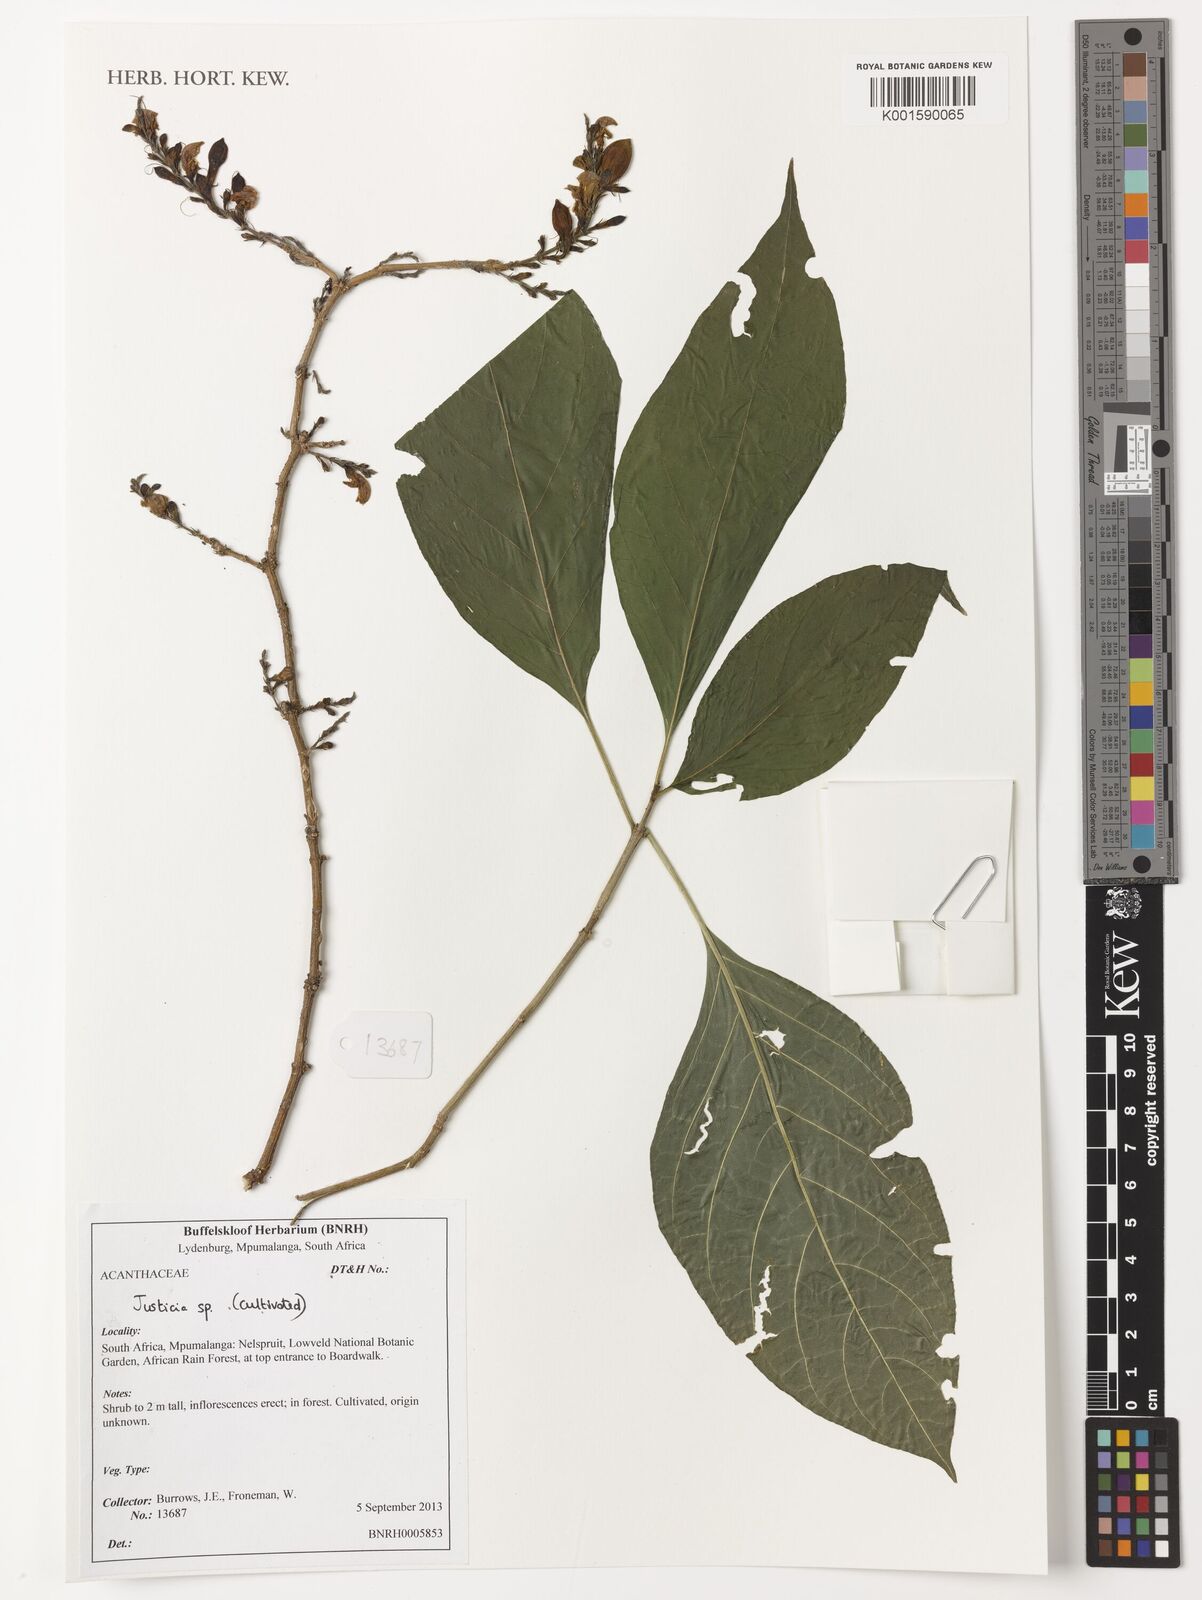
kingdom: Plantae
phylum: Tracheophyta
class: Magnoliopsida
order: Lamiales
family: Acanthaceae
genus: Justicia
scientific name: Justicia
